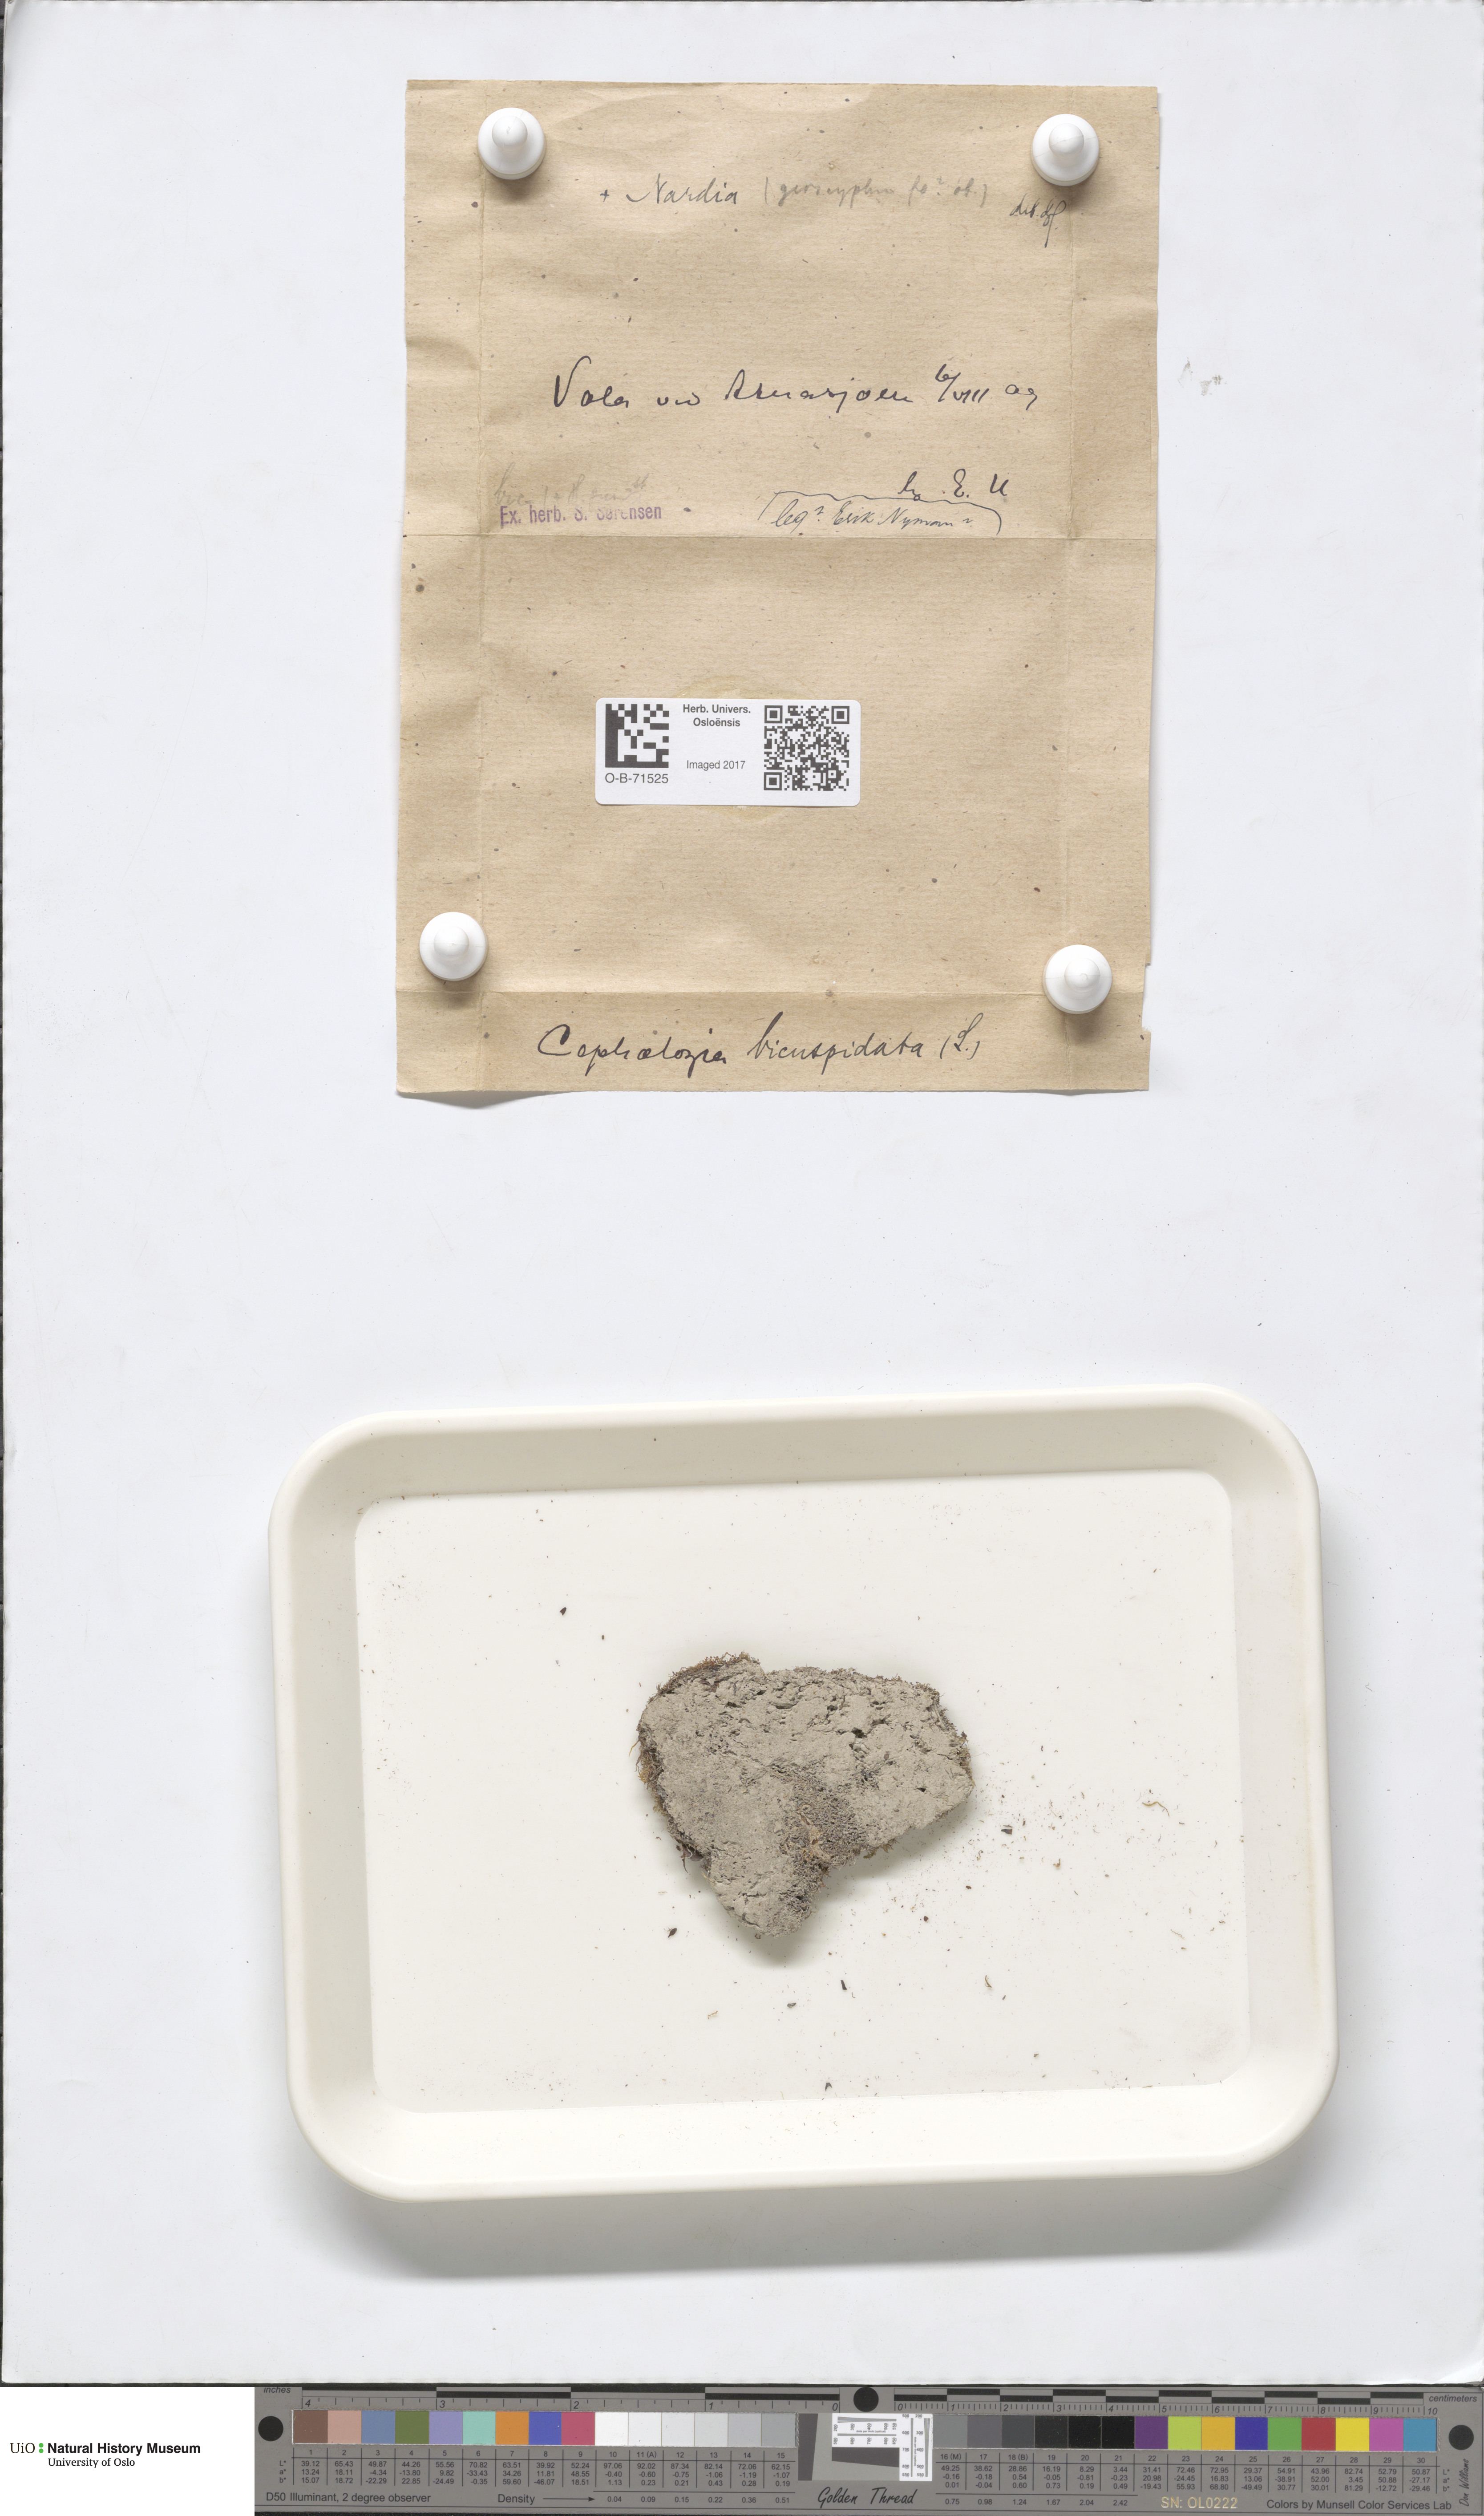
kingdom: Plantae
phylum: Marchantiophyta
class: Jungermanniopsida
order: Jungermanniales
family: Cephaloziaceae
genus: Cephalozia
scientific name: Cephalozia bicuspidata
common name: Two-horned pincerwort
